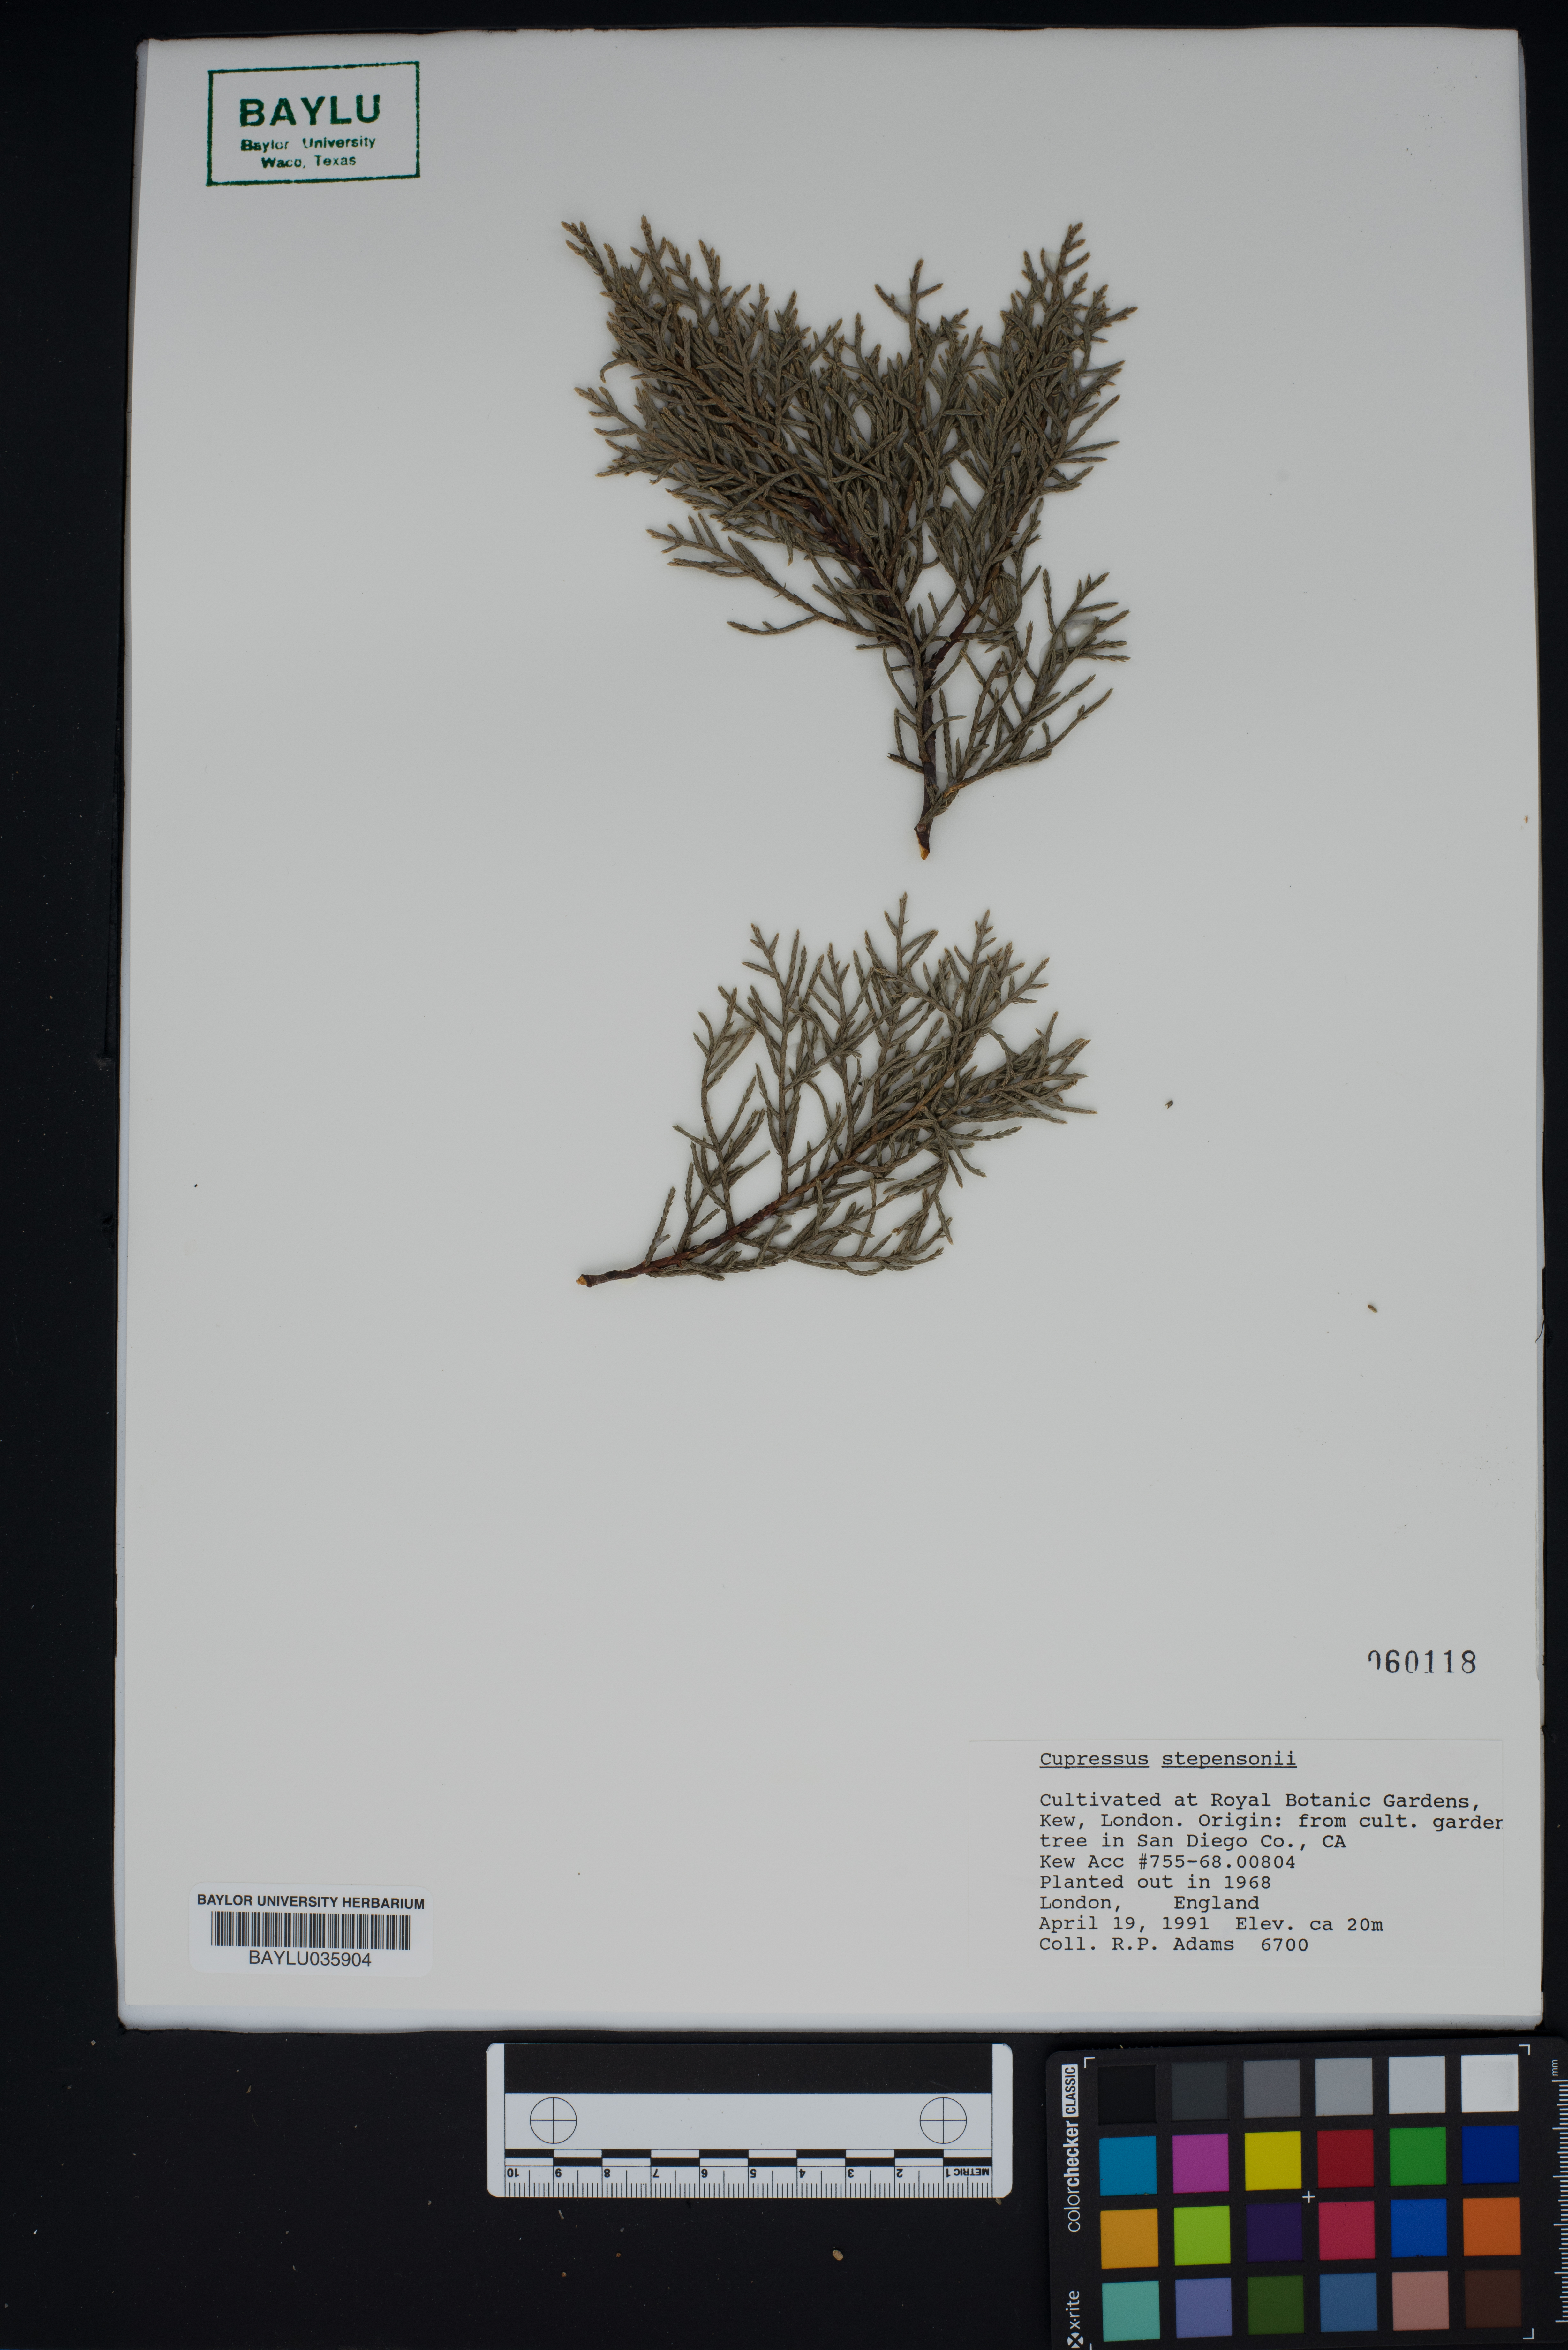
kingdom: Plantae
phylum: Tracheophyta
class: Pinopsida
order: Pinales
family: Cupressaceae
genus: Cupressus
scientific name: Cupressus arizonica
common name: Arizona cypress
